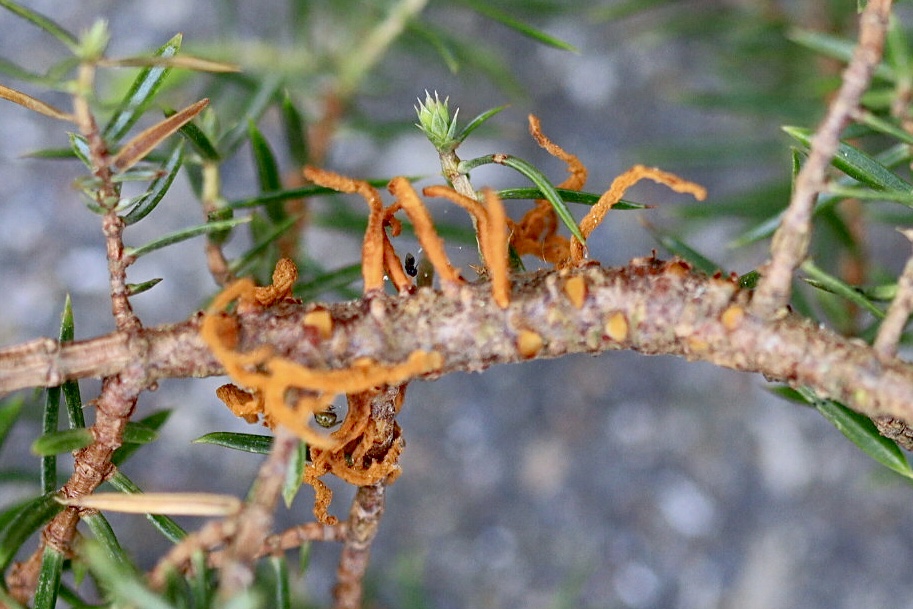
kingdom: Fungi
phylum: Basidiomycota
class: Pucciniomycetes
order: Pucciniales
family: Gymnosporangiaceae
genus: Gymnosporangium
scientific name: Gymnosporangium clavariiforme
